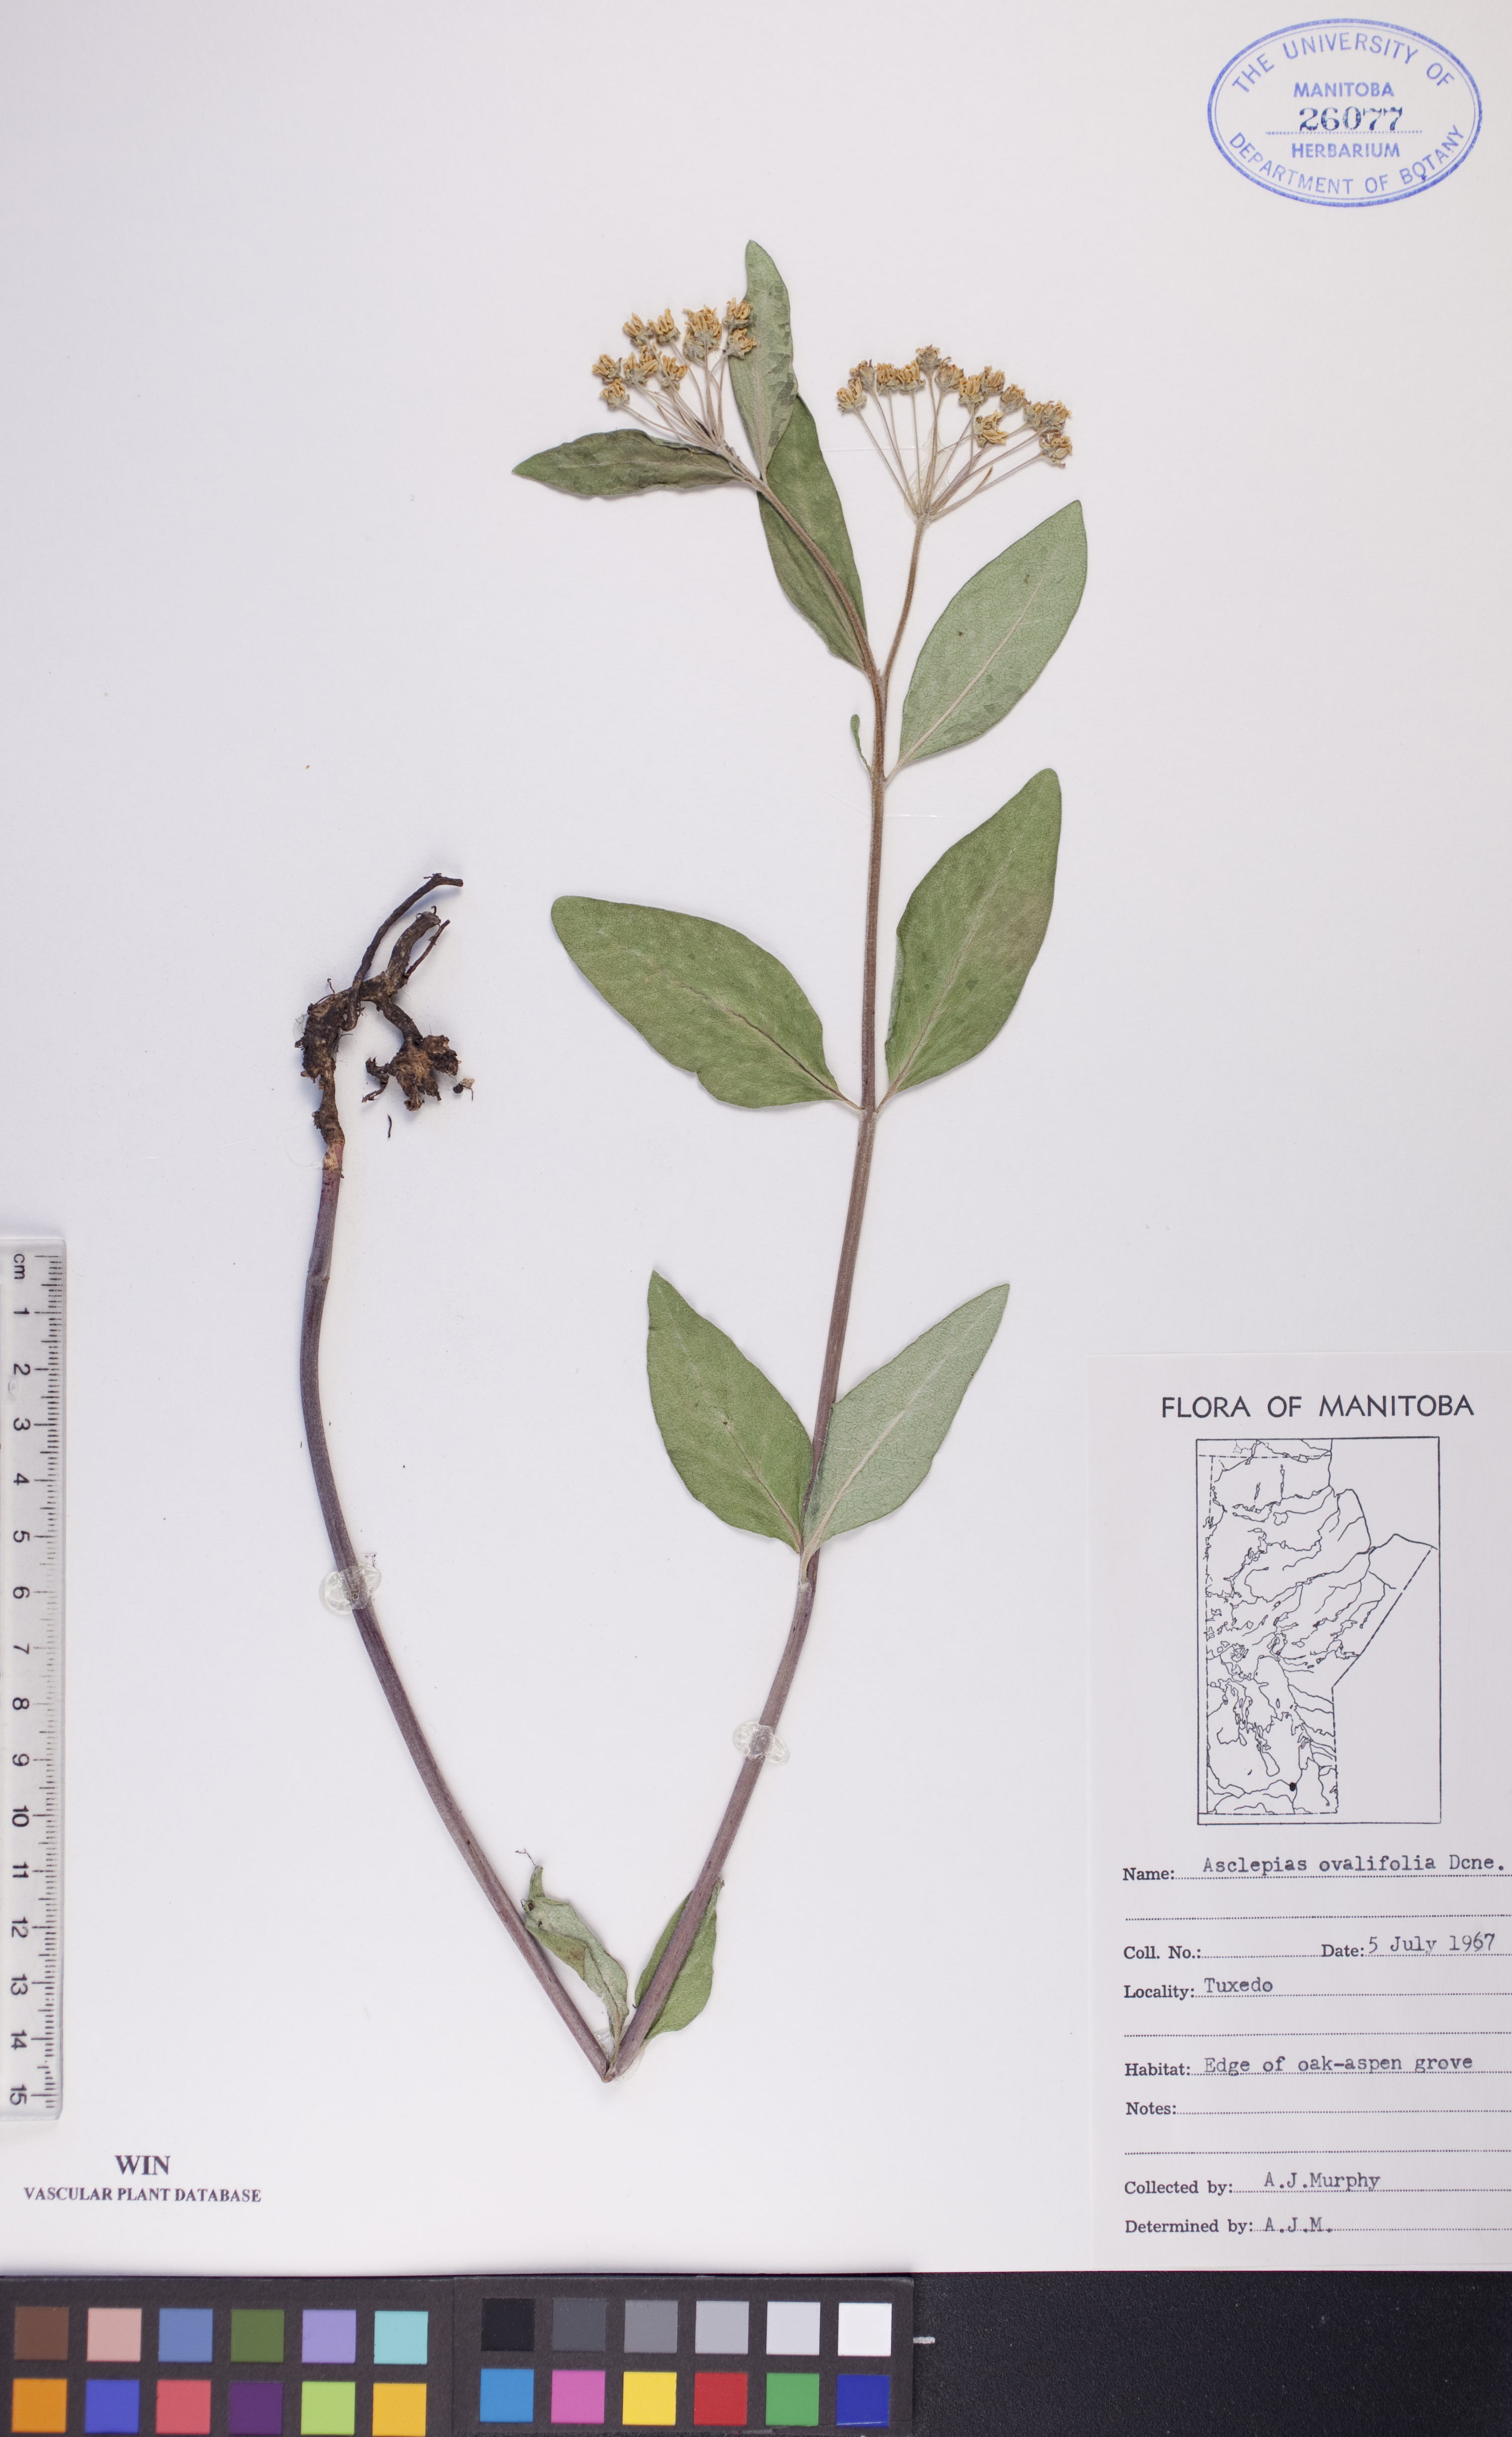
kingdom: Plantae
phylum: Tracheophyta
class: Magnoliopsida
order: Gentianales
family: Apocynaceae
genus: Asclepias
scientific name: Asclepias ovalifolia
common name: Dwarf milkweed
